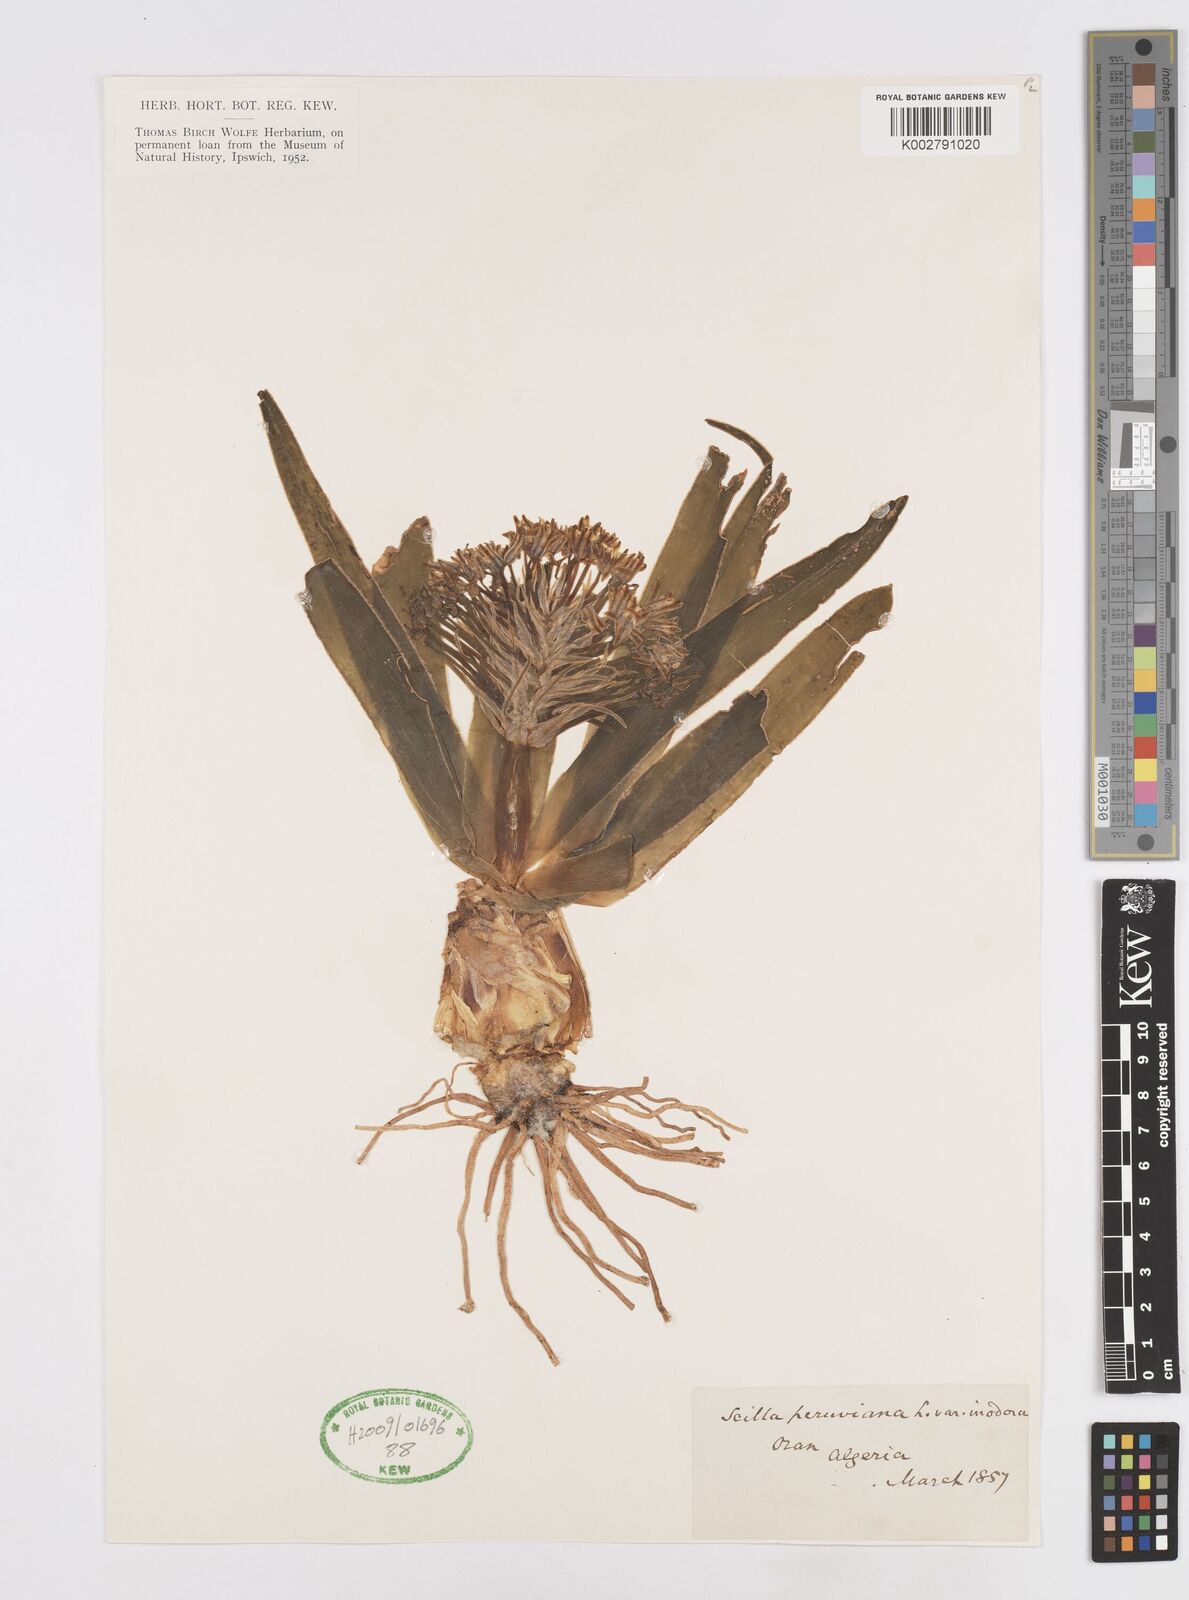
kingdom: Plantae
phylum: Tracheophyta
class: Liliopsida
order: Asparagales
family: Asparagaceae
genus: Scilla
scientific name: Scilla peruviana
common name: Portuguese squill
